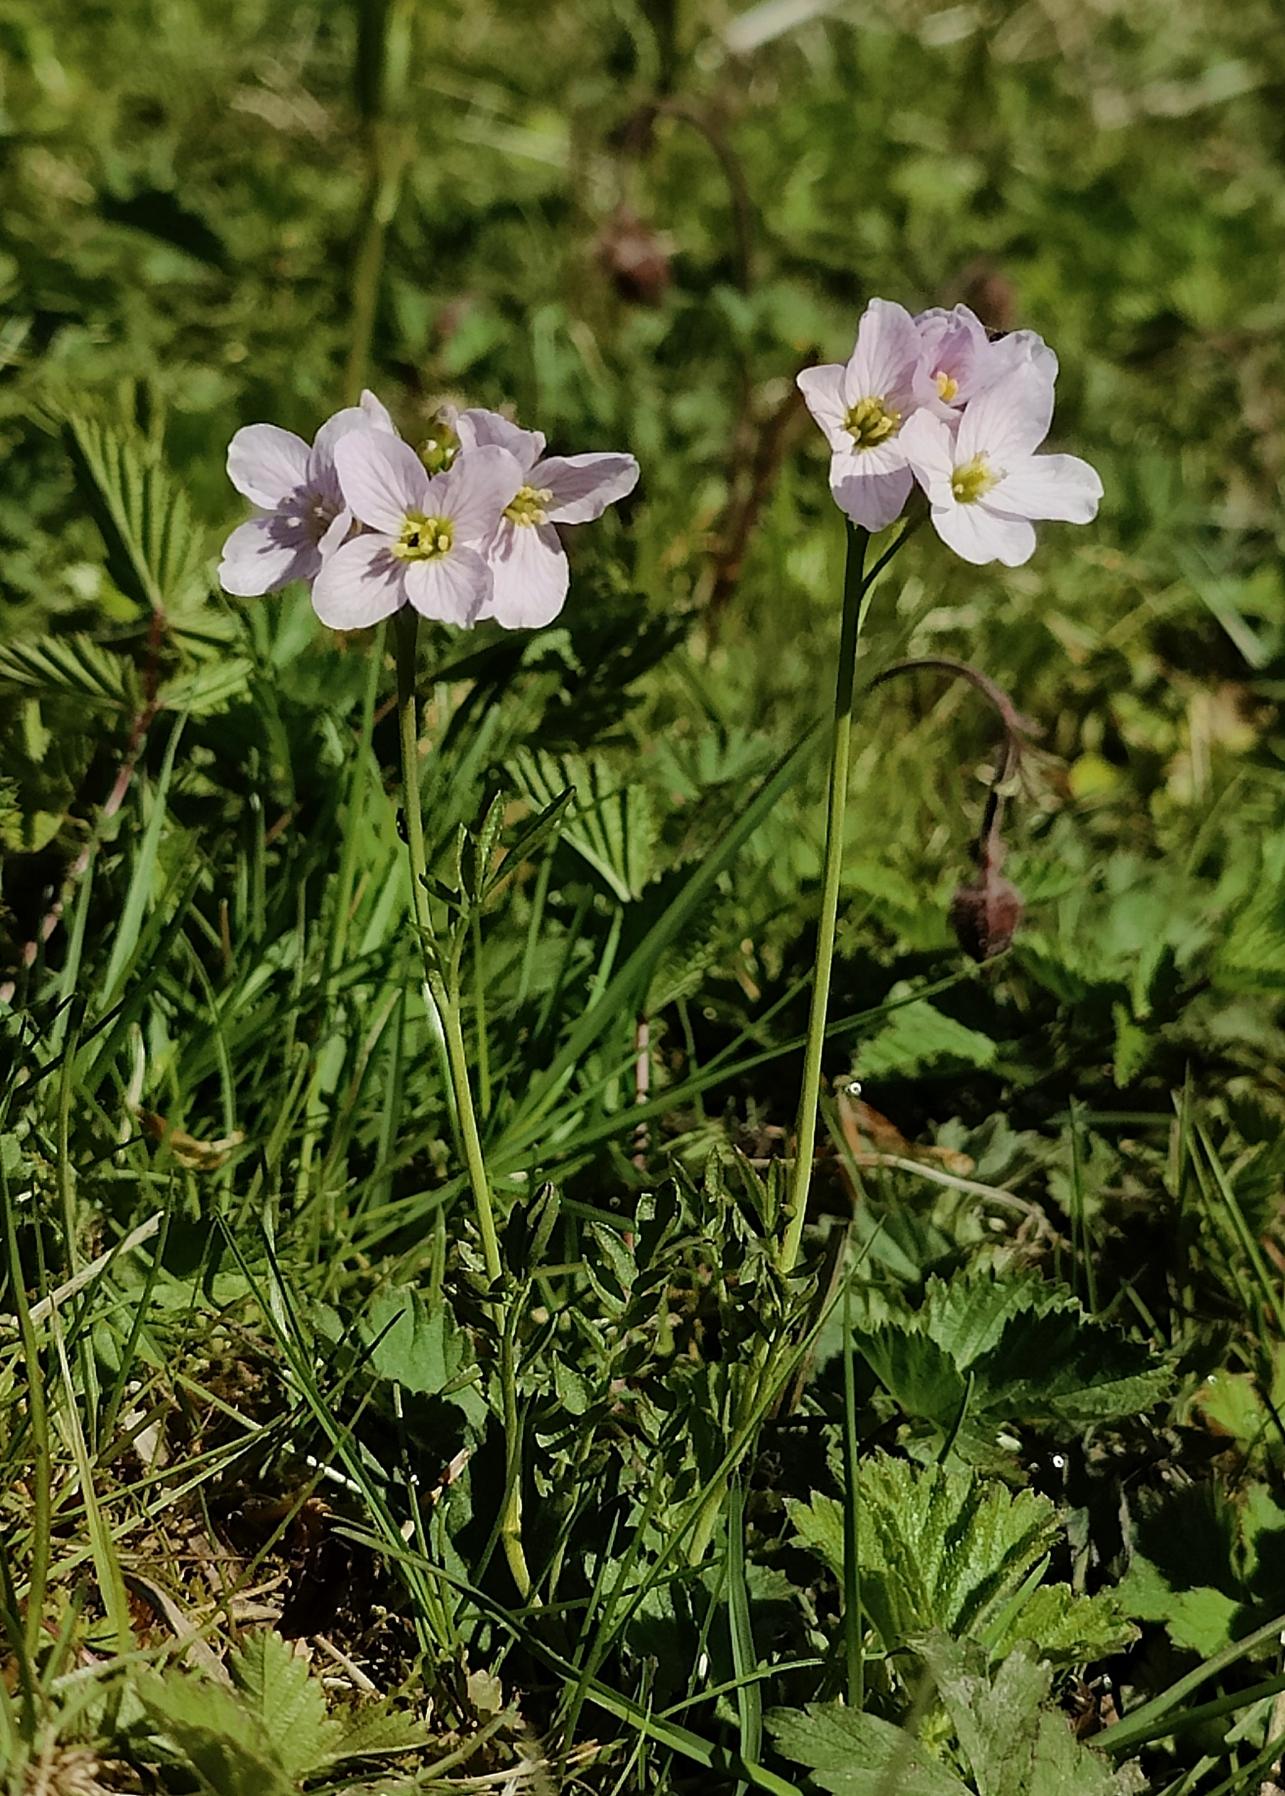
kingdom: Plantae
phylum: Tracheophyta
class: Magnoliopsida
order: Brassicales
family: Brassicaceae
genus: Cardamine
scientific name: Cardamine pratensis
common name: Engkarse
